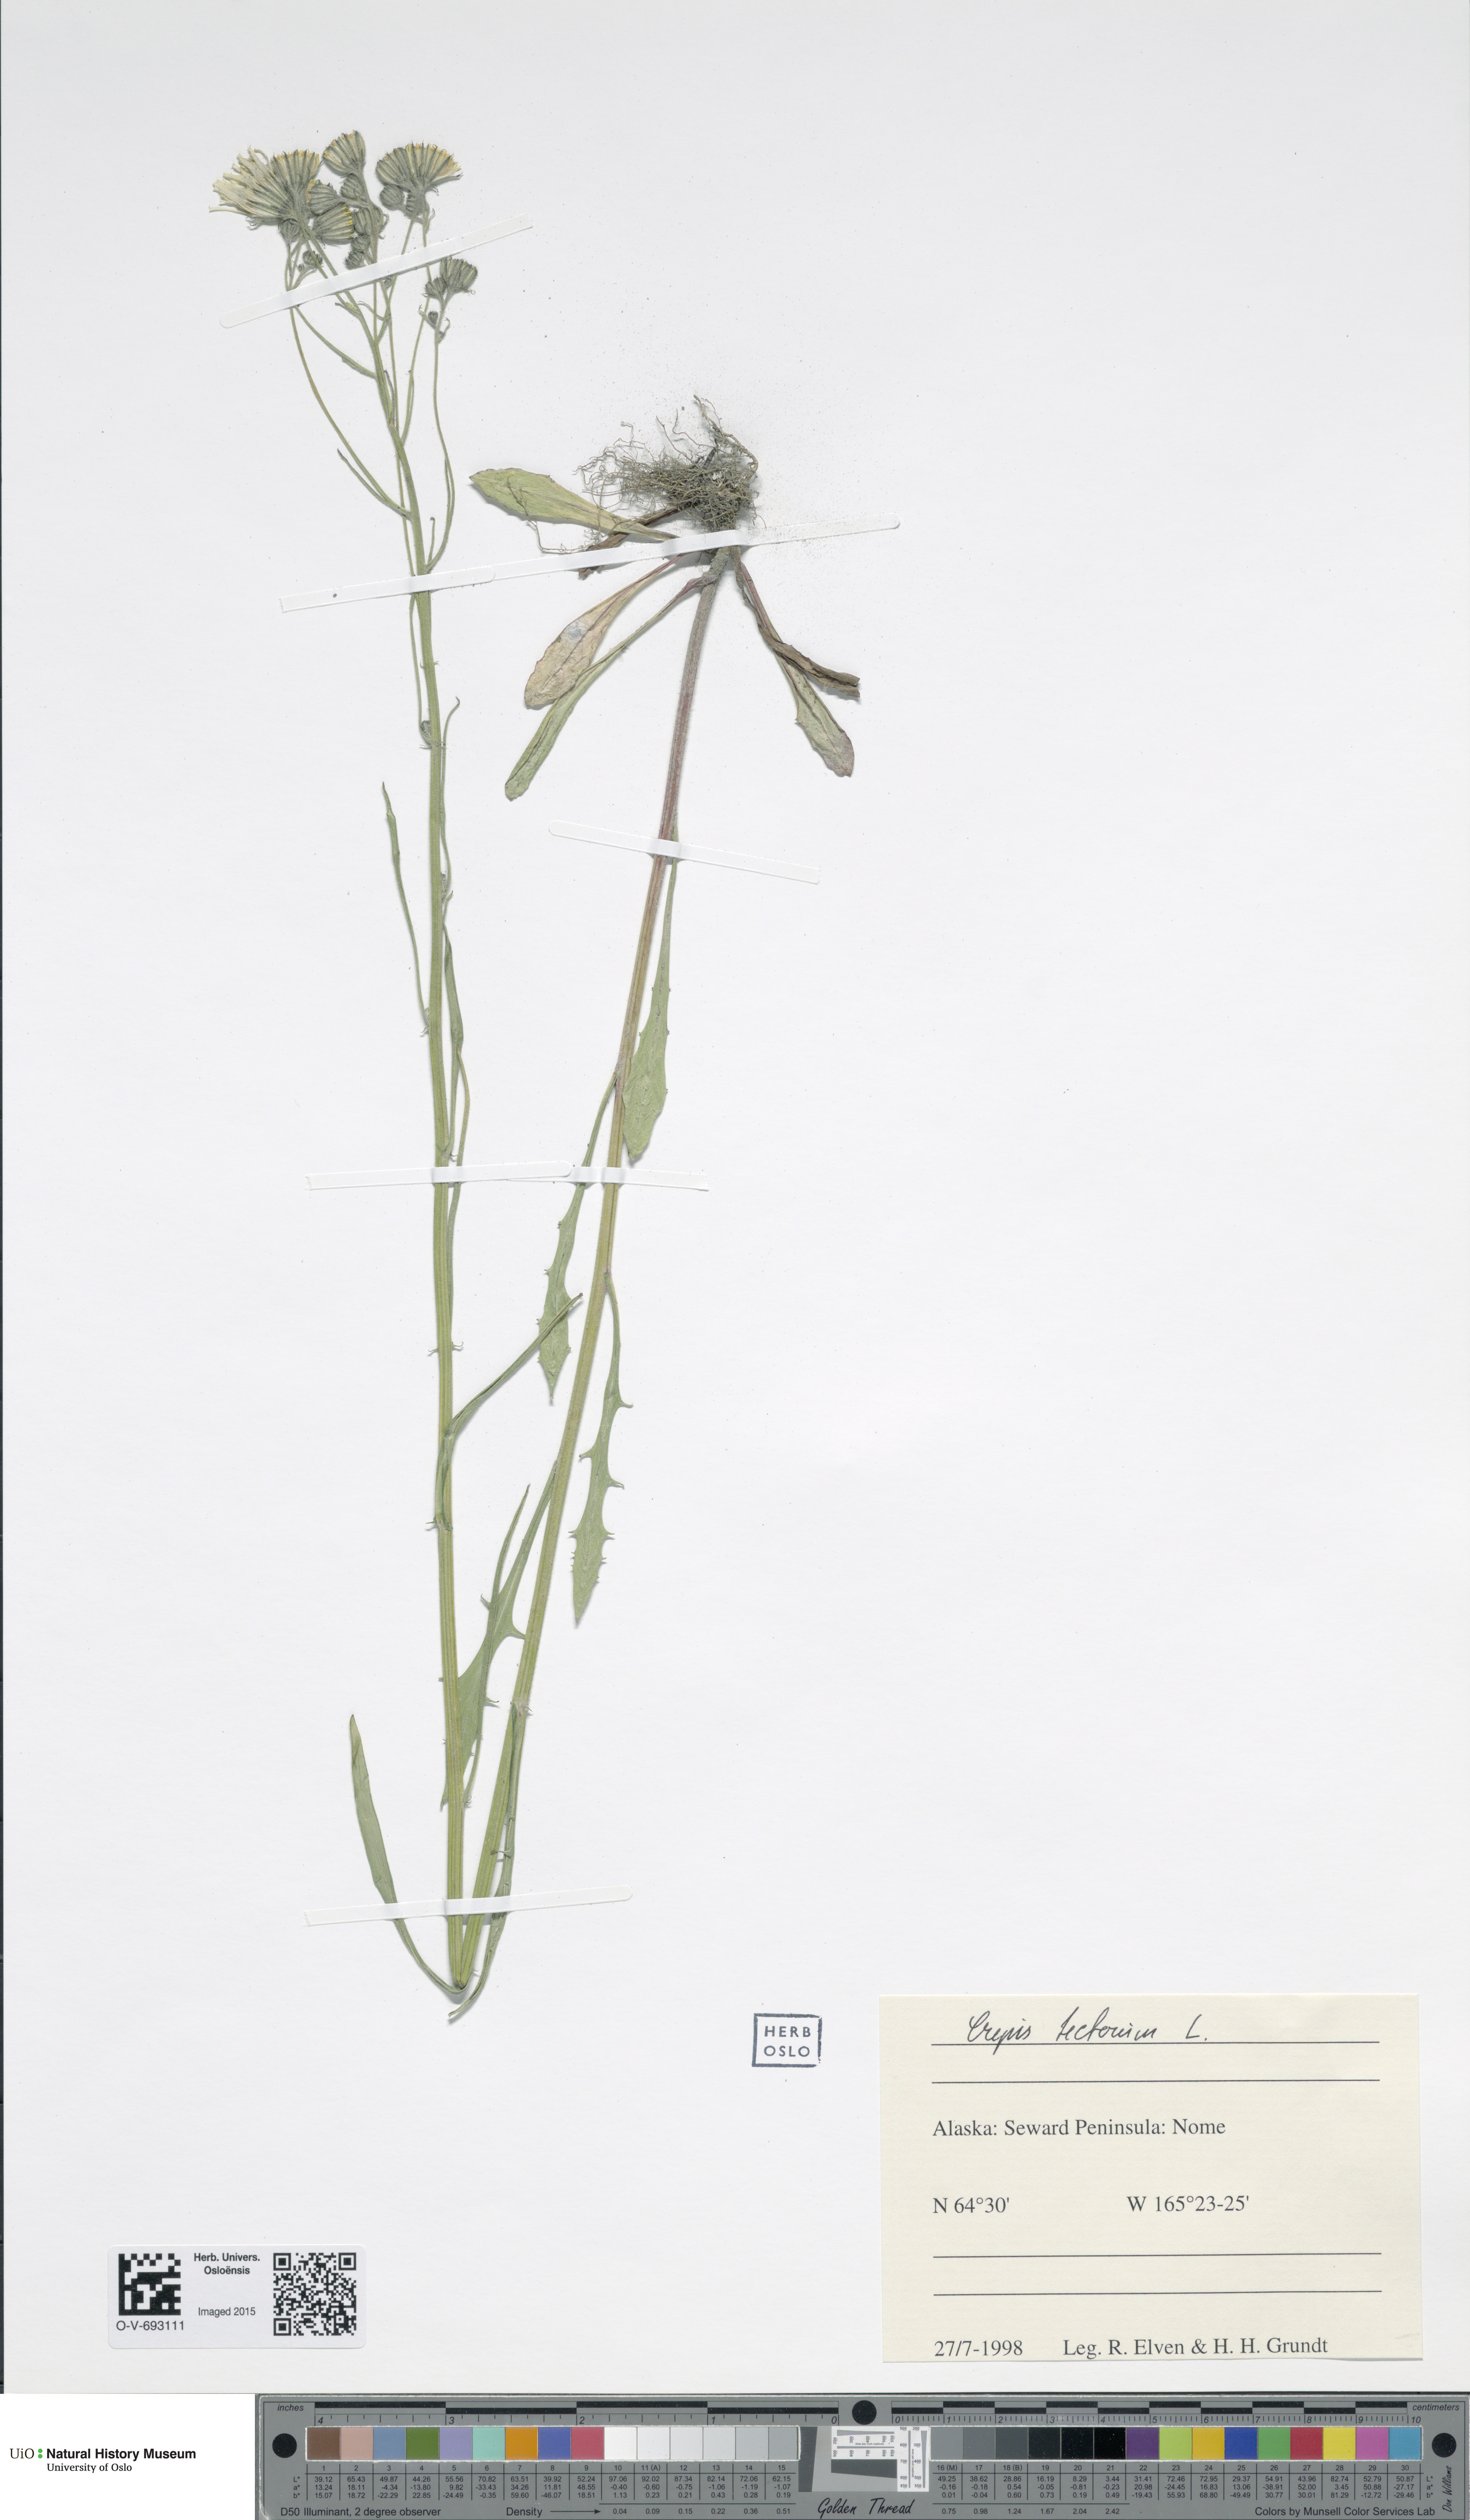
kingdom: Plantae
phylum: Tracheophyta
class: Magnoliopsida
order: Asterales
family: Asteraceae
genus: Crepis
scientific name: Crepis tectorum
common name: Narrow-leaved hawk's-beard
